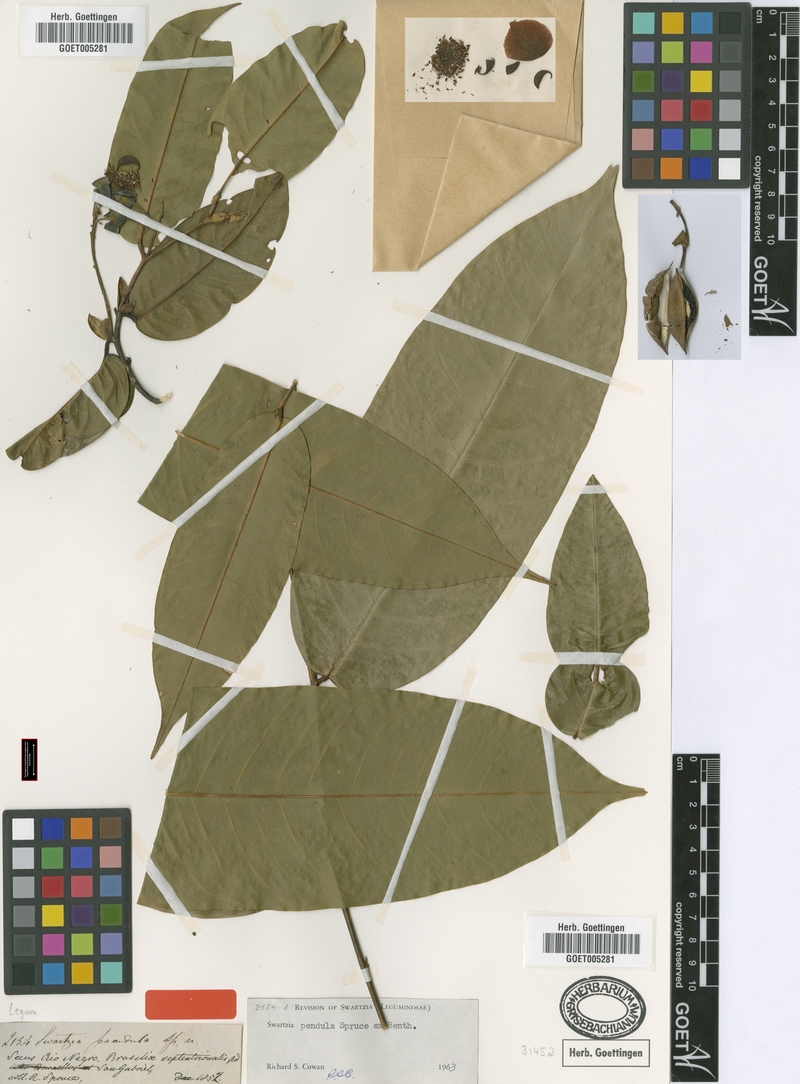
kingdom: Plantae
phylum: Tracheophyta
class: Magnoliopsida
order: Fabales
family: Fabaceae
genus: Swartzia
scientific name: Swartzia pendula
